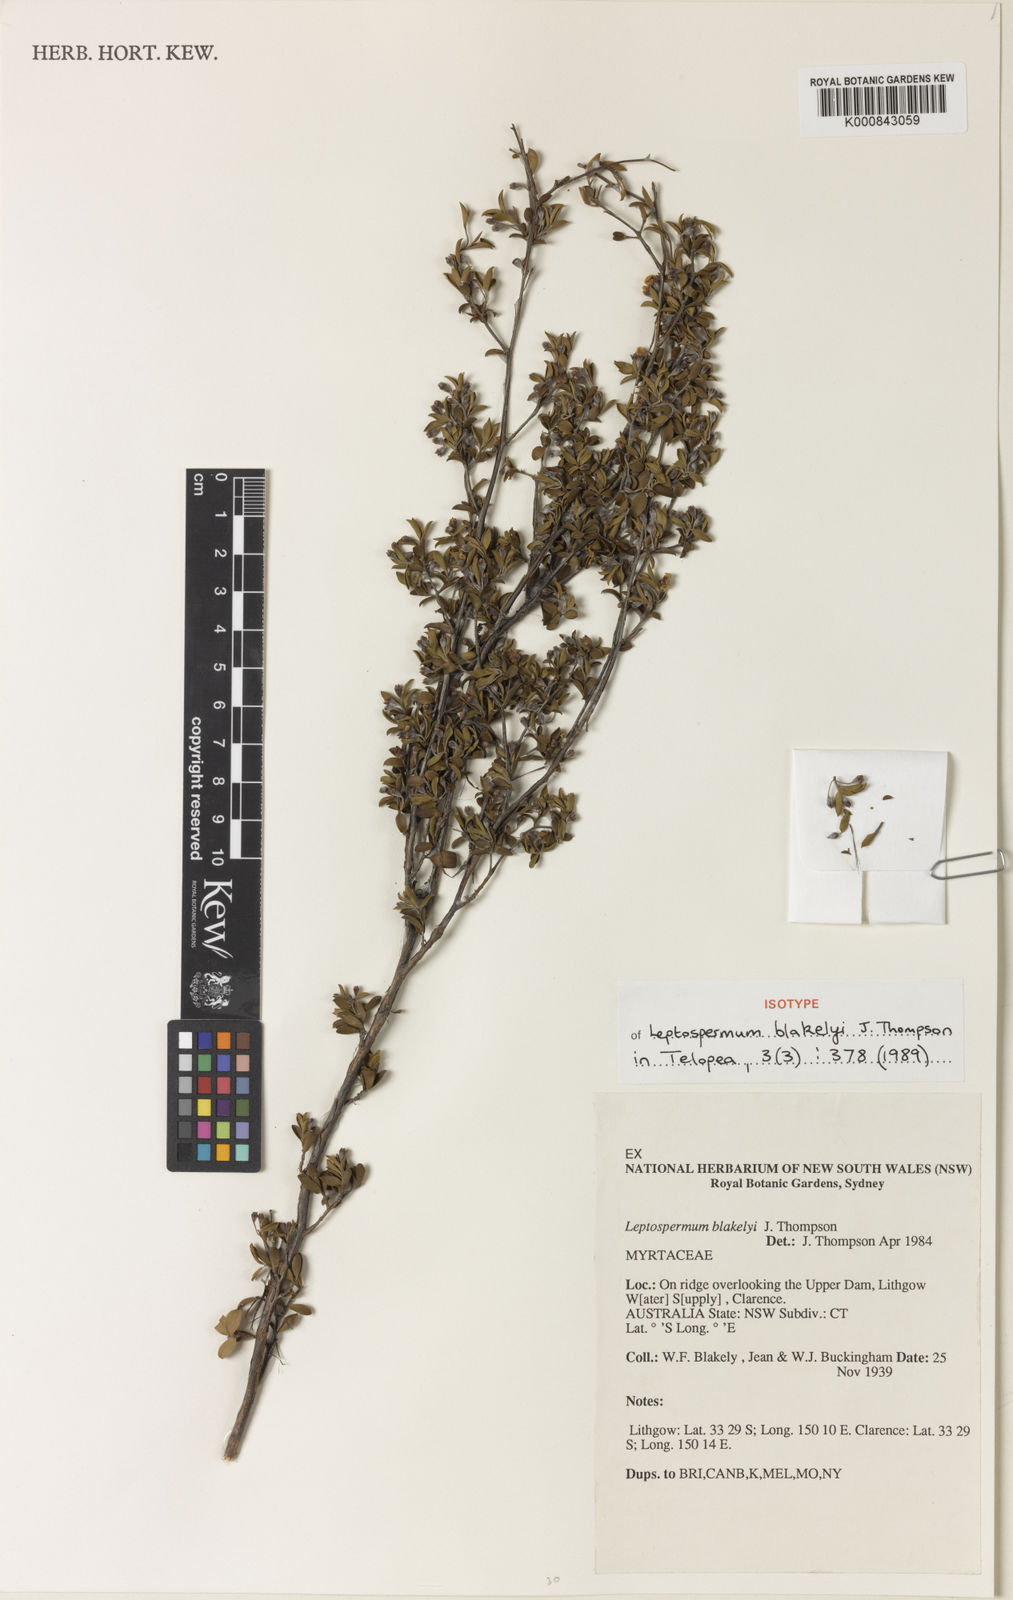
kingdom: Plantae
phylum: Tracheophyta
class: Magnoliopsida
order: Myrtales
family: Myrtaceae
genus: Leptospermum
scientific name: Leptospermum blakelyi
